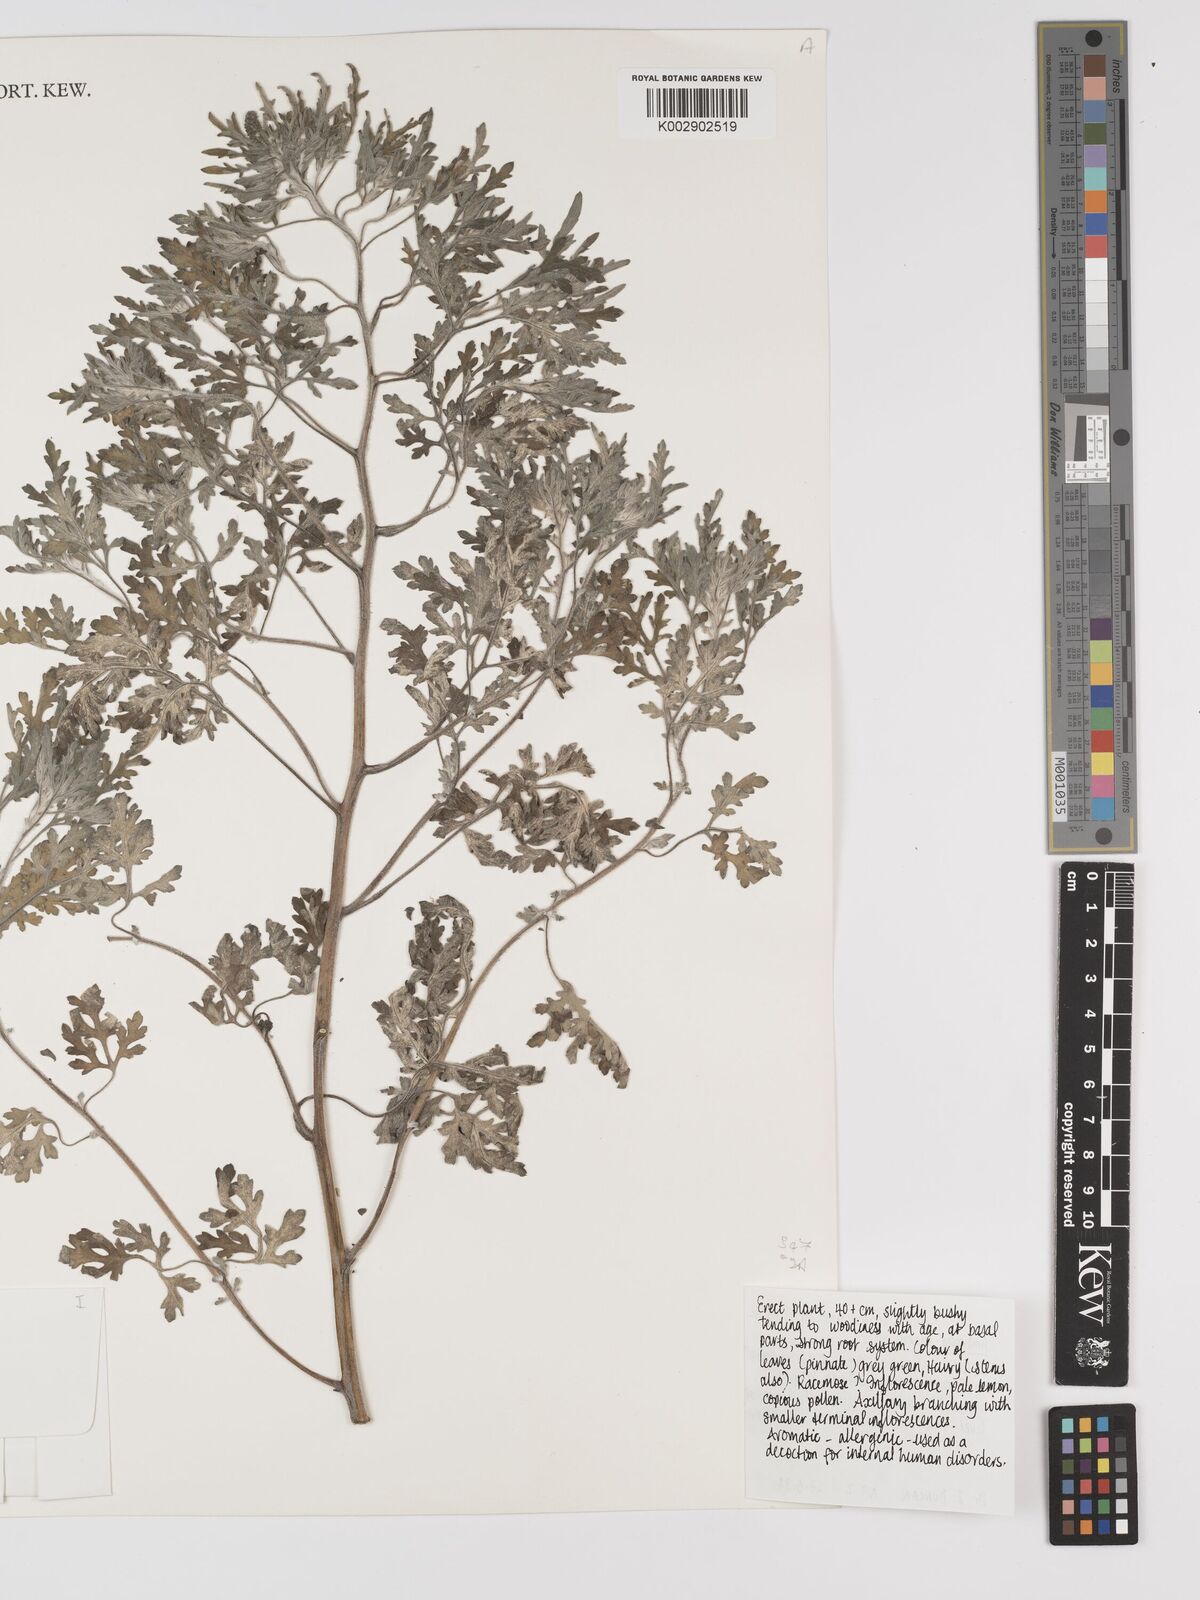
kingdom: Plantae
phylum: Tracheophyta
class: Magnoliopsida
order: Asterales
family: Asteraceae
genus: Ambrosia
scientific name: Ambrosia maritima
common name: Sea ambrosia
